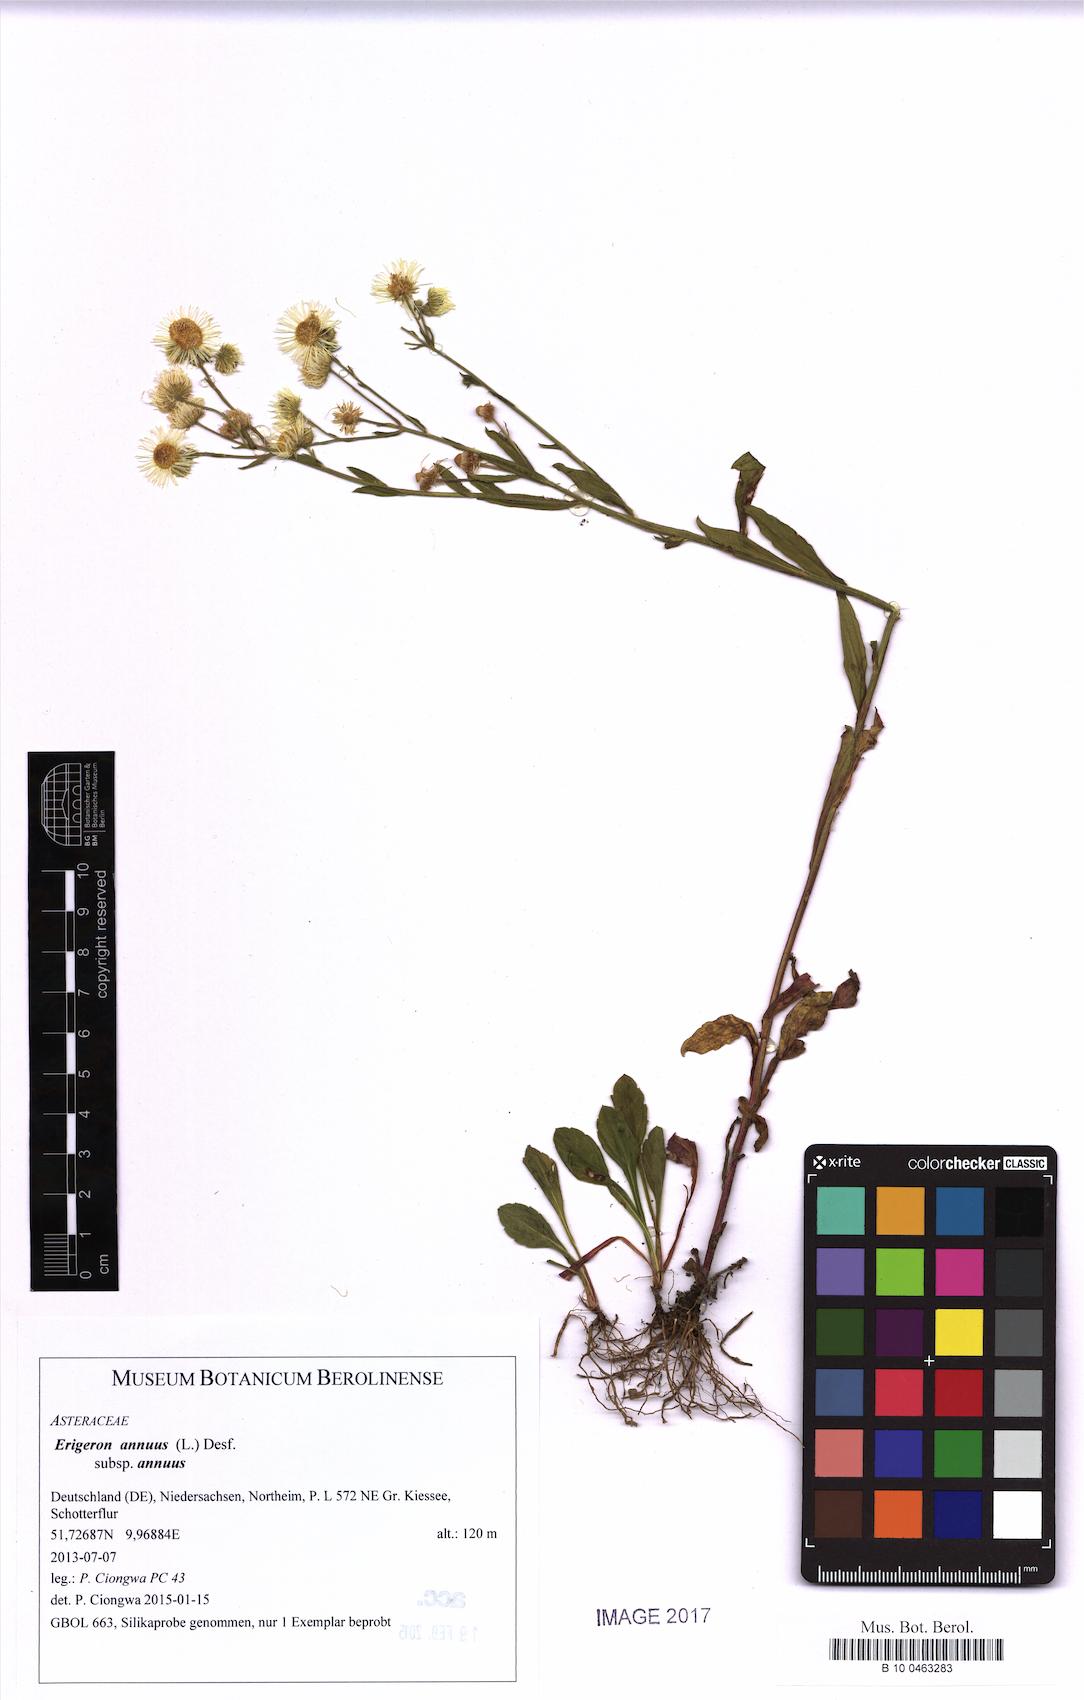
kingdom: Plantae
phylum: Tracheophyta
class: Magnoliopsida
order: Asterales
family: Asteraceae
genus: Erigeron
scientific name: Erigeron annuus
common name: Tall fleabane
